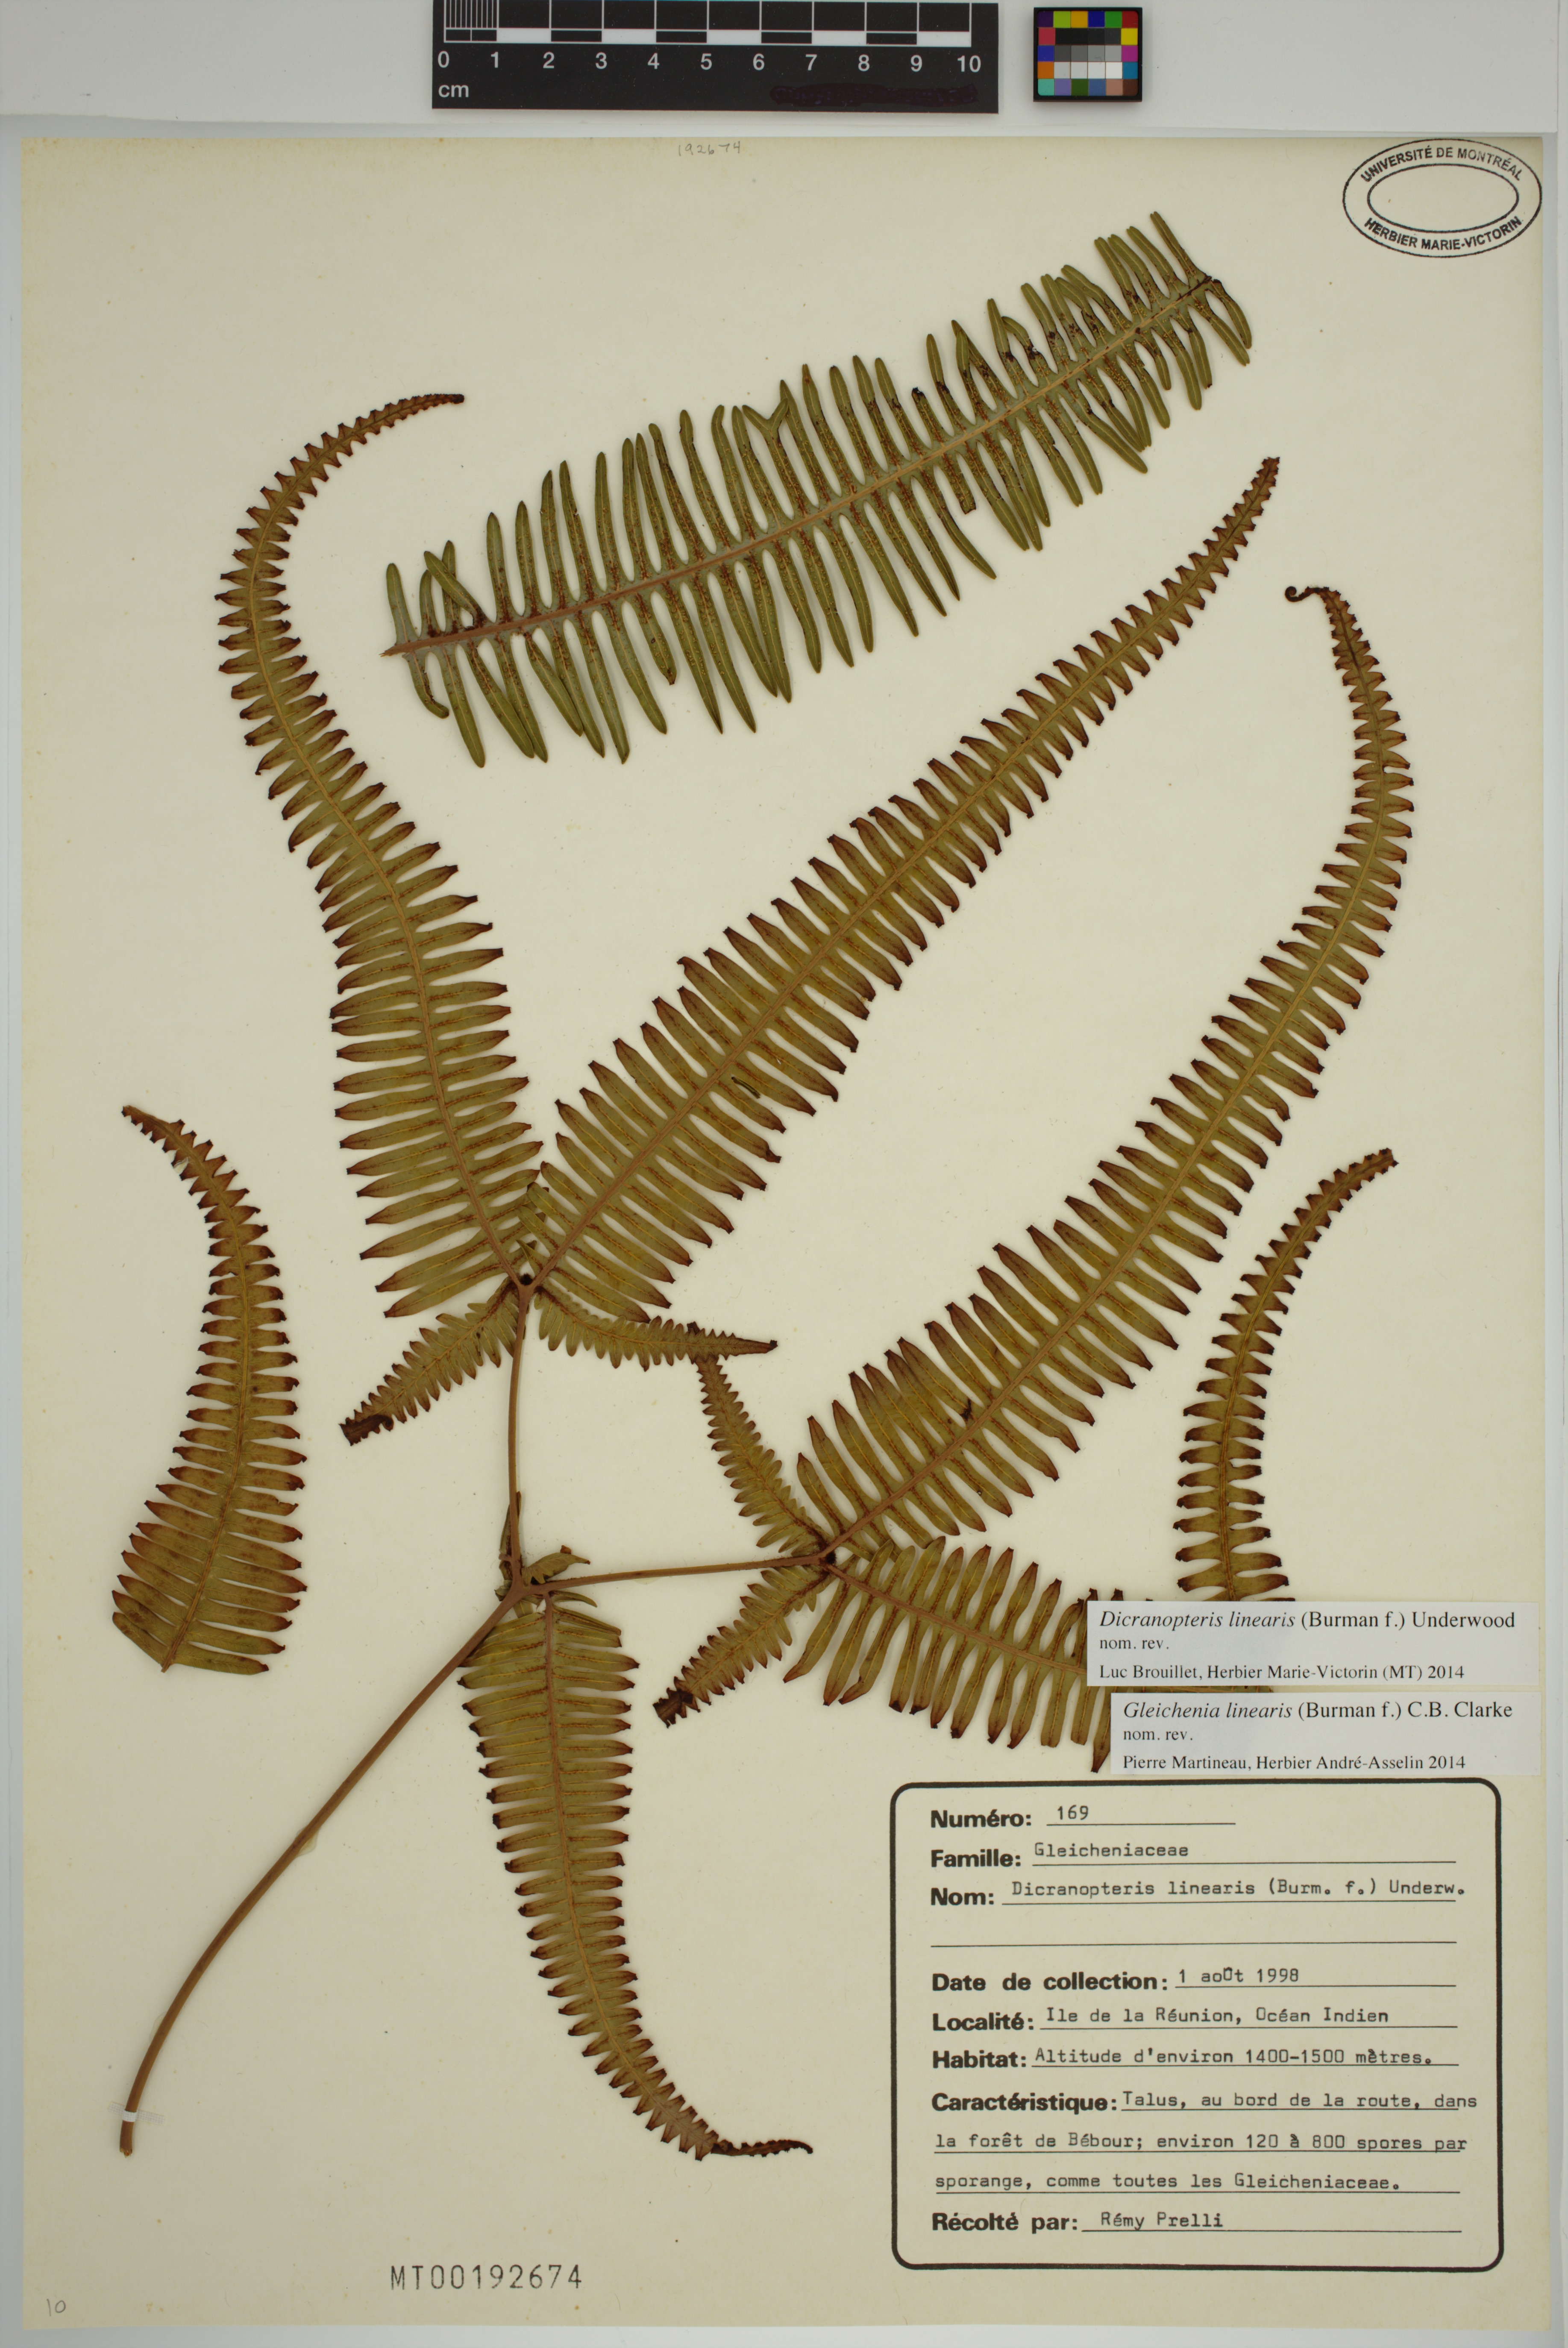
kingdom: Plantae
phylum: Tracheophyta
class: Polypodiopsida
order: Gleicheniales
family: Gleicheniaceae
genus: Dicranopteris
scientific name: Dicranopteris linearis
